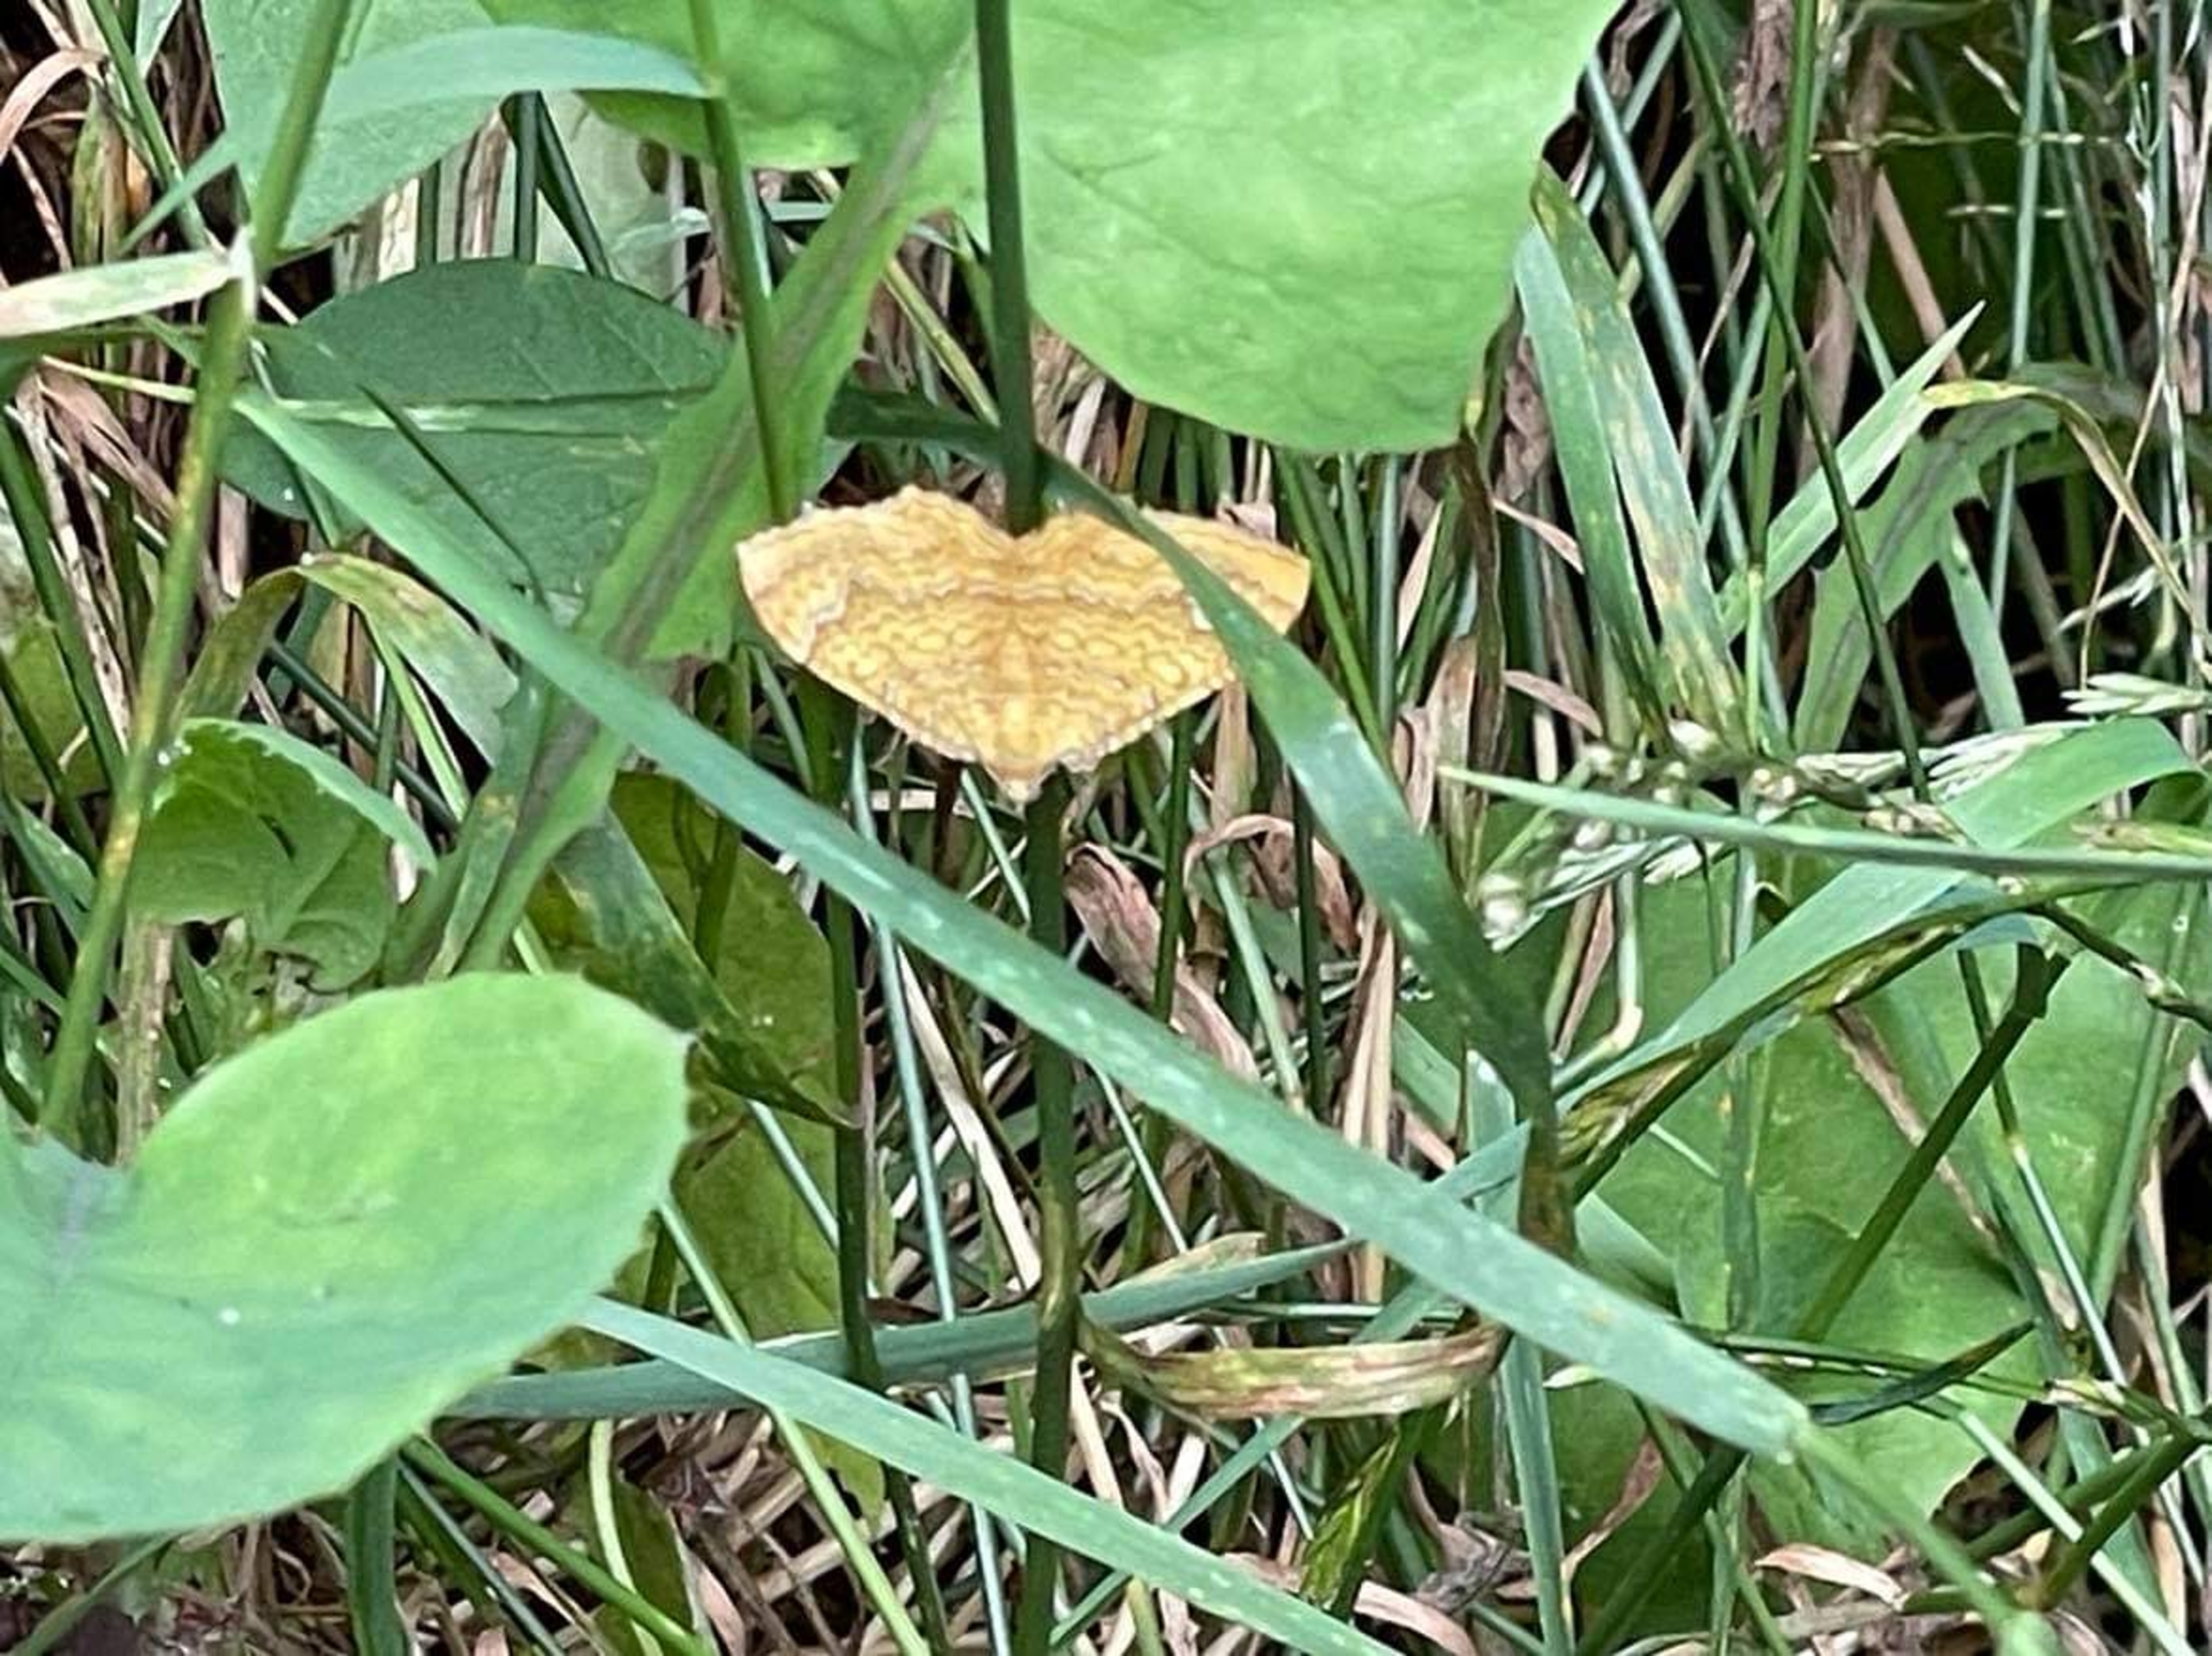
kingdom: Animalia
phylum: Arthropoda
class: Insecta
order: Lepidoptera
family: Geometridae
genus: Camptogramma
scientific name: Camptogramma bilineata
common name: Okkergul bladmåler
